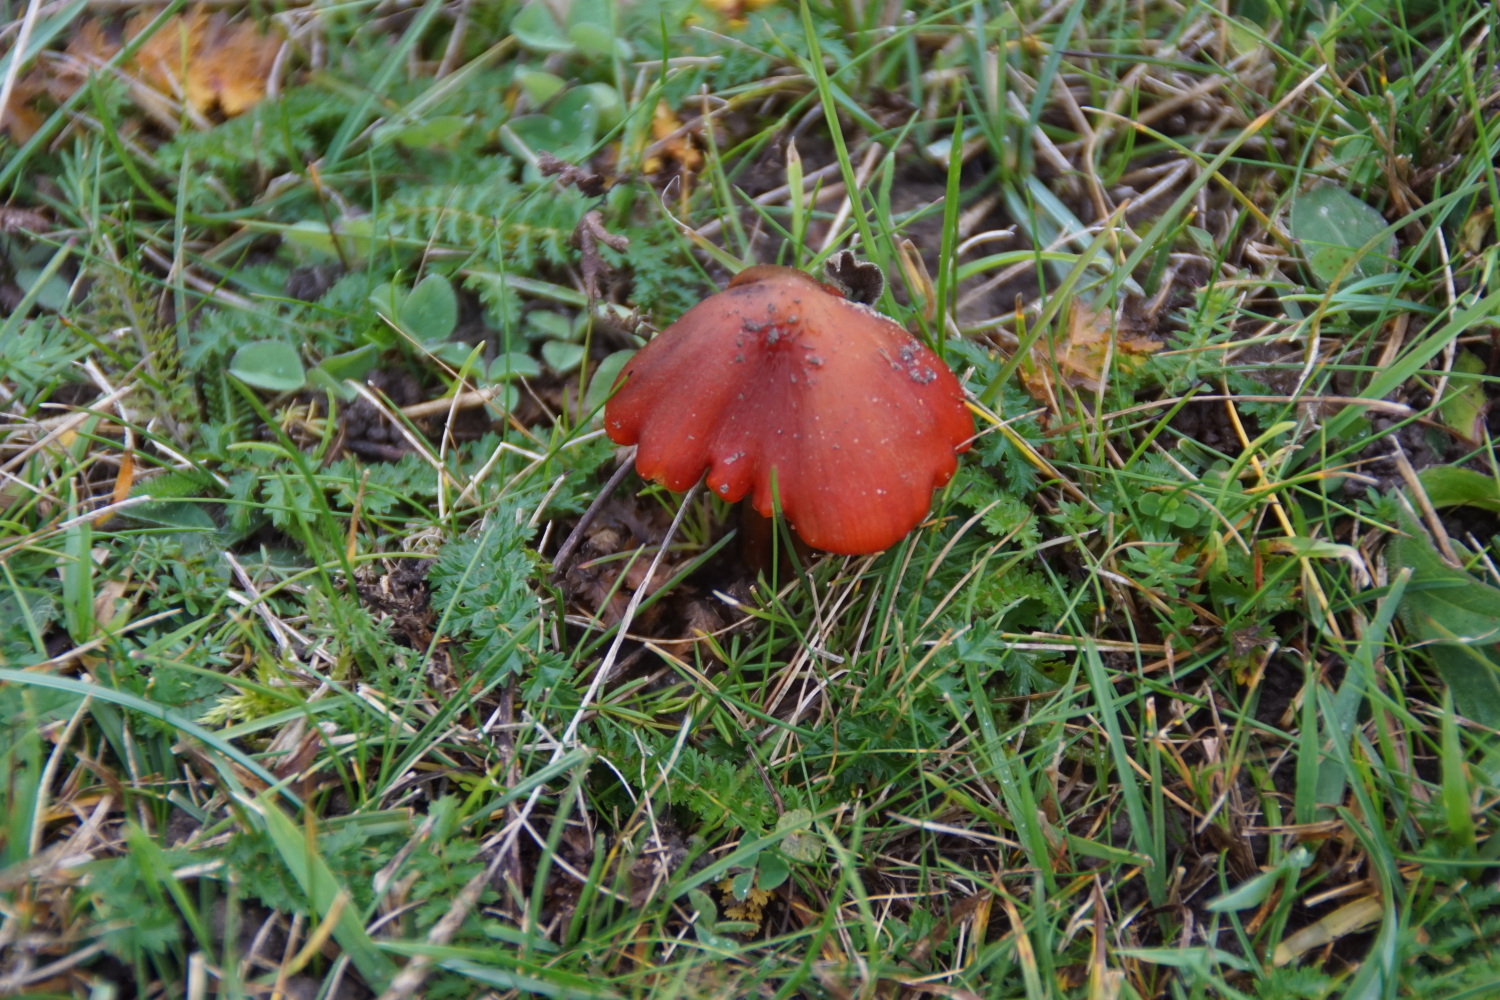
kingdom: Fungi
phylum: Basidiomycota
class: Agaricomycetes
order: Agaricales
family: Hygrophoraceae
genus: Hygrocybe
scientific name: Hygrocybe conica
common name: kegle-vokshat
